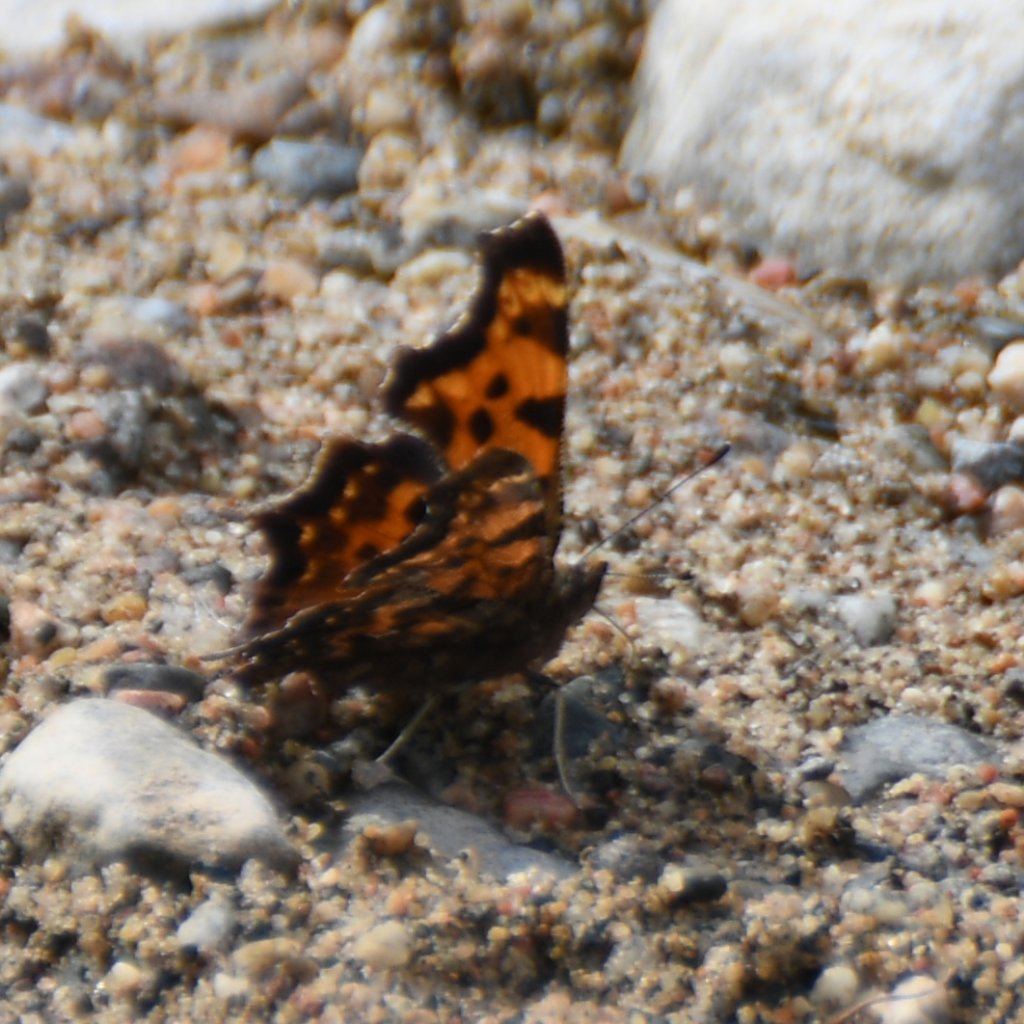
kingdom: Animalia
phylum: Arthropoda
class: Insecta
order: Lepidoptera
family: Nymphalidae
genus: Polygonia
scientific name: Polygonia faunus
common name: Green Comma
